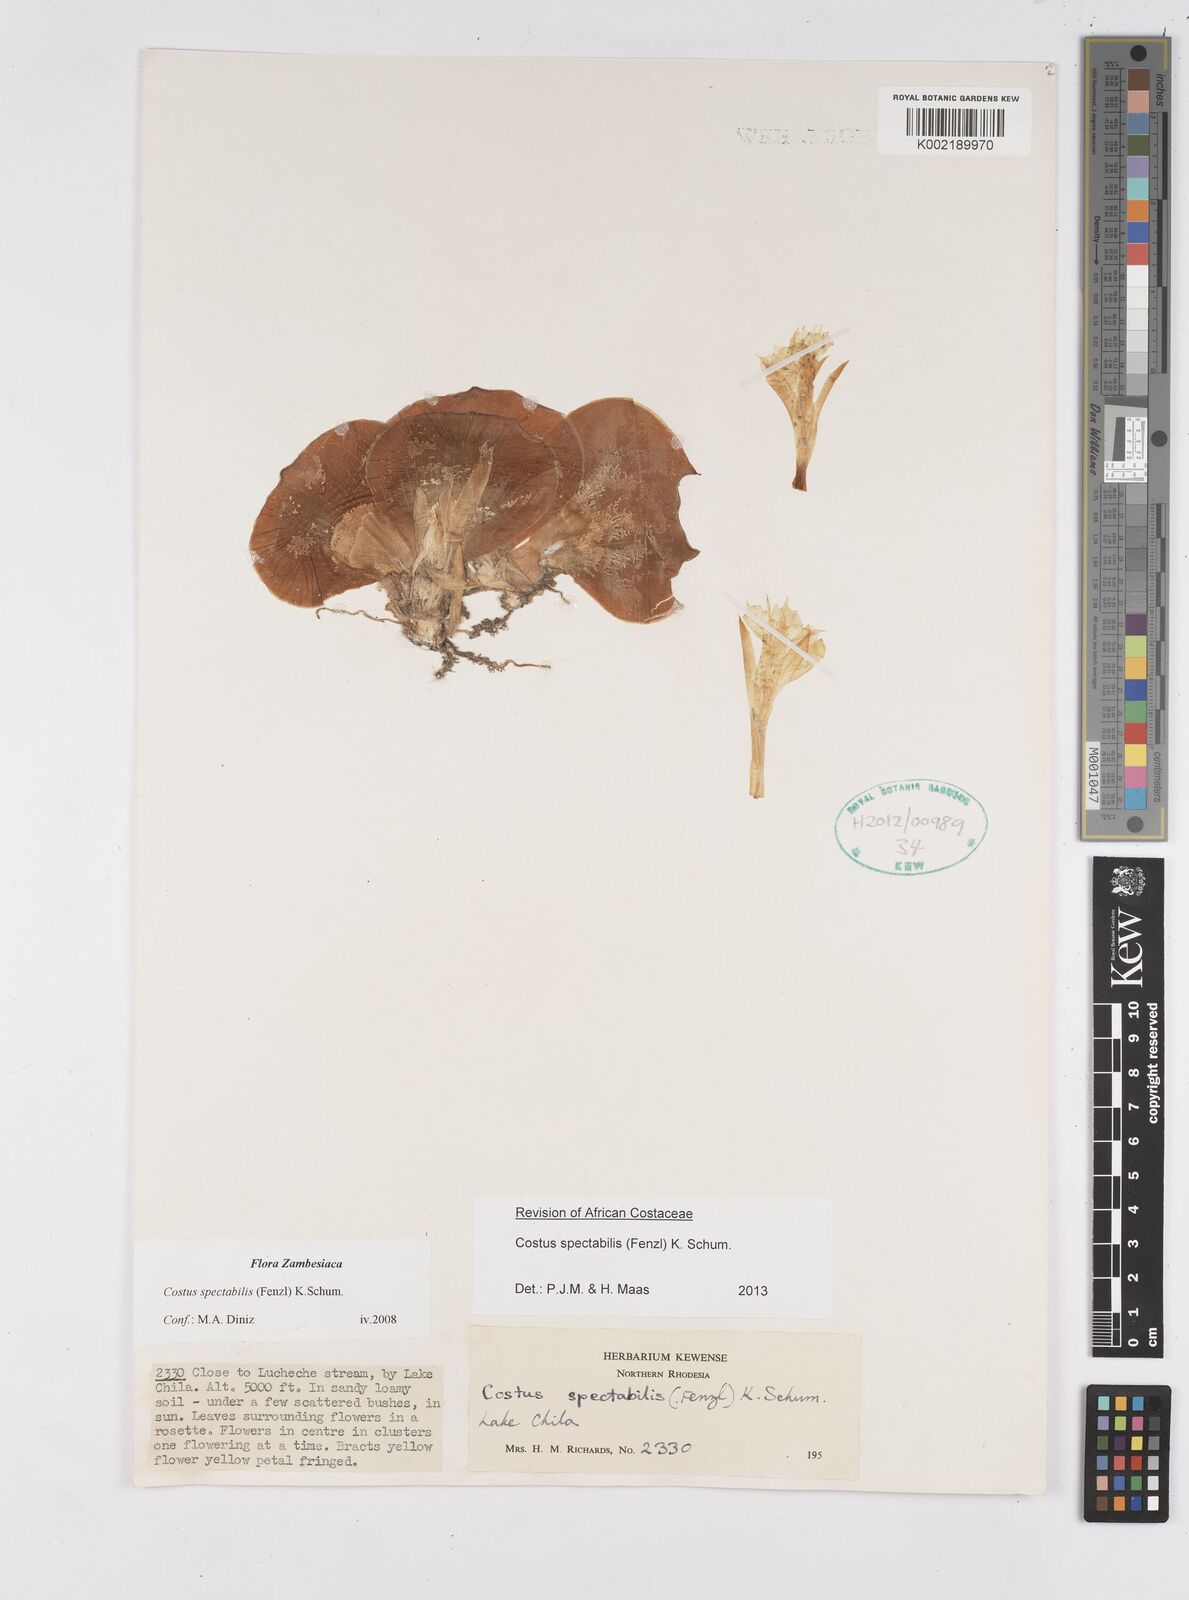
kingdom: Plantae
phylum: Tracheophyta
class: Liliopsida
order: Zingiberales
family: Costaceae
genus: Costus
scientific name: Costus spectabilis
